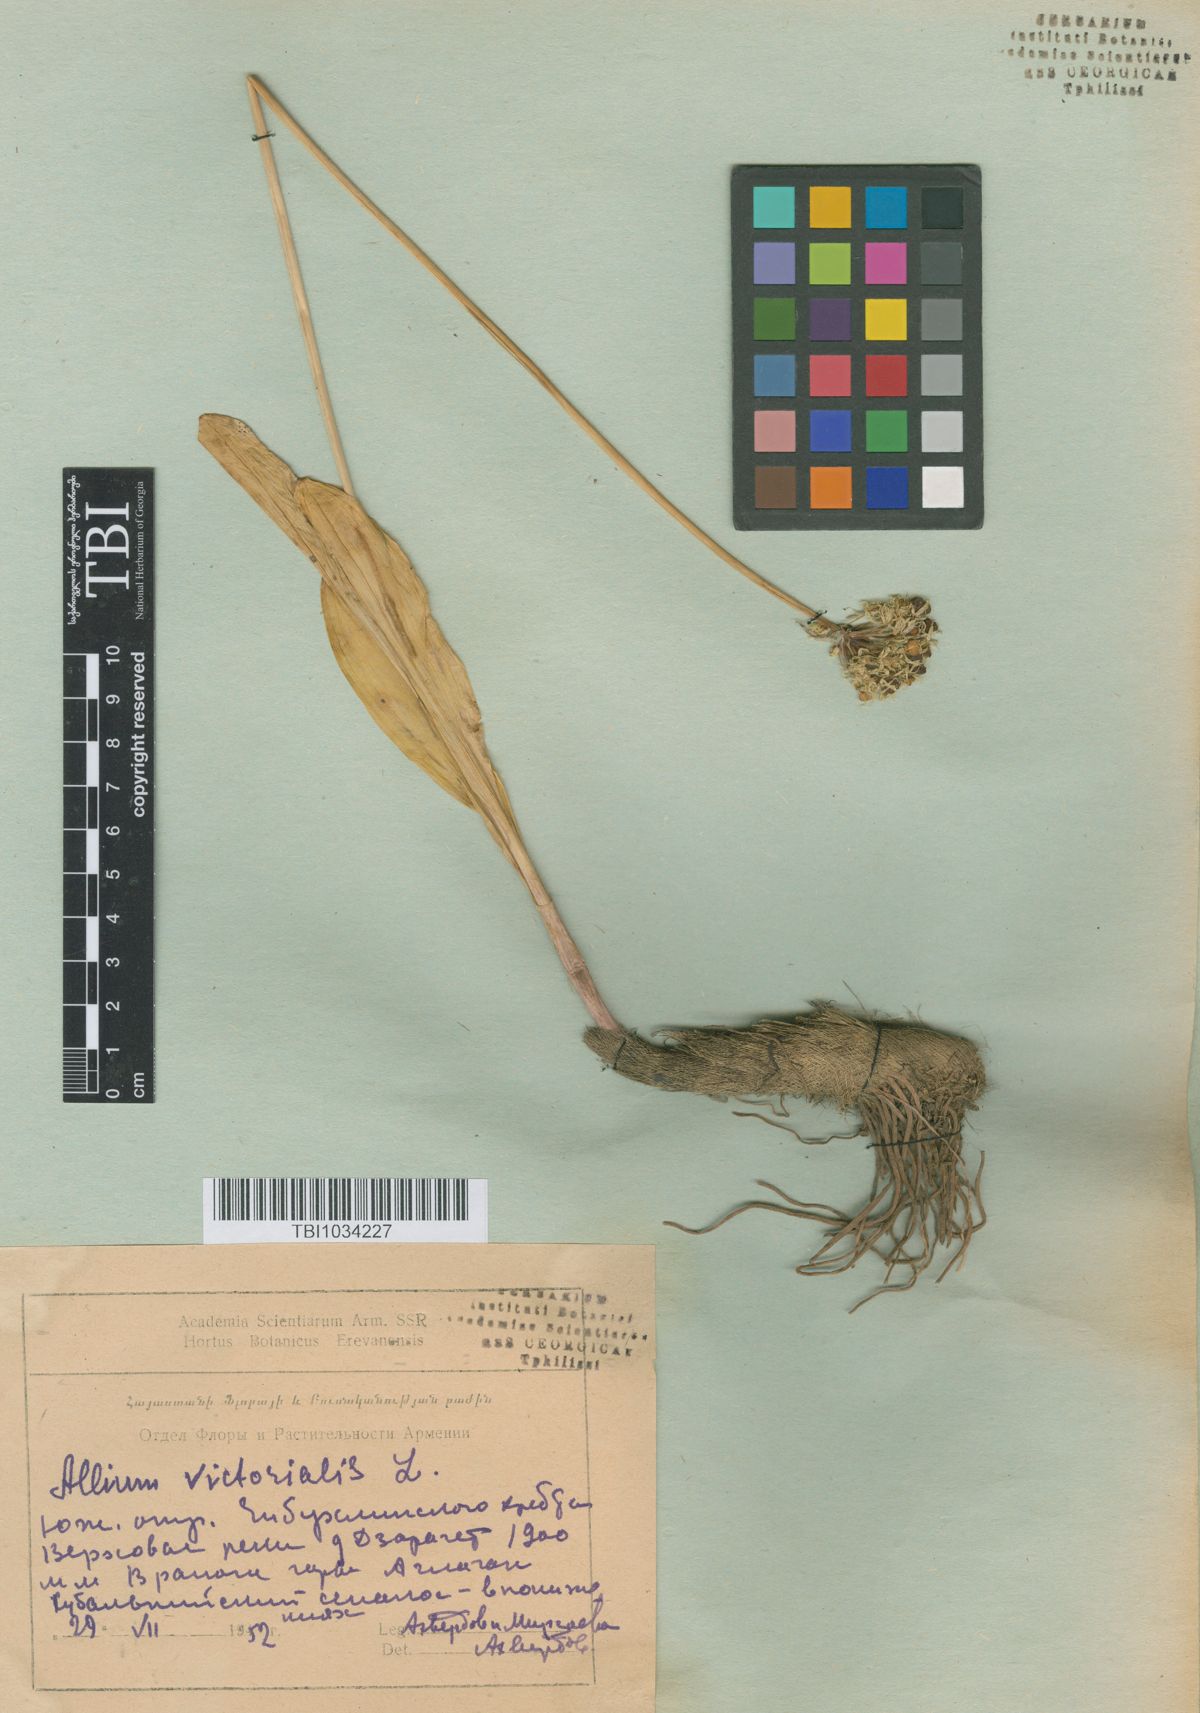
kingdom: Plantae
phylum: Tracheophyta
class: Liliopsida
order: Asparagales
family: Amaryllidaceae
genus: Allium
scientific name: Allium victorialis
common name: Alpine leek
